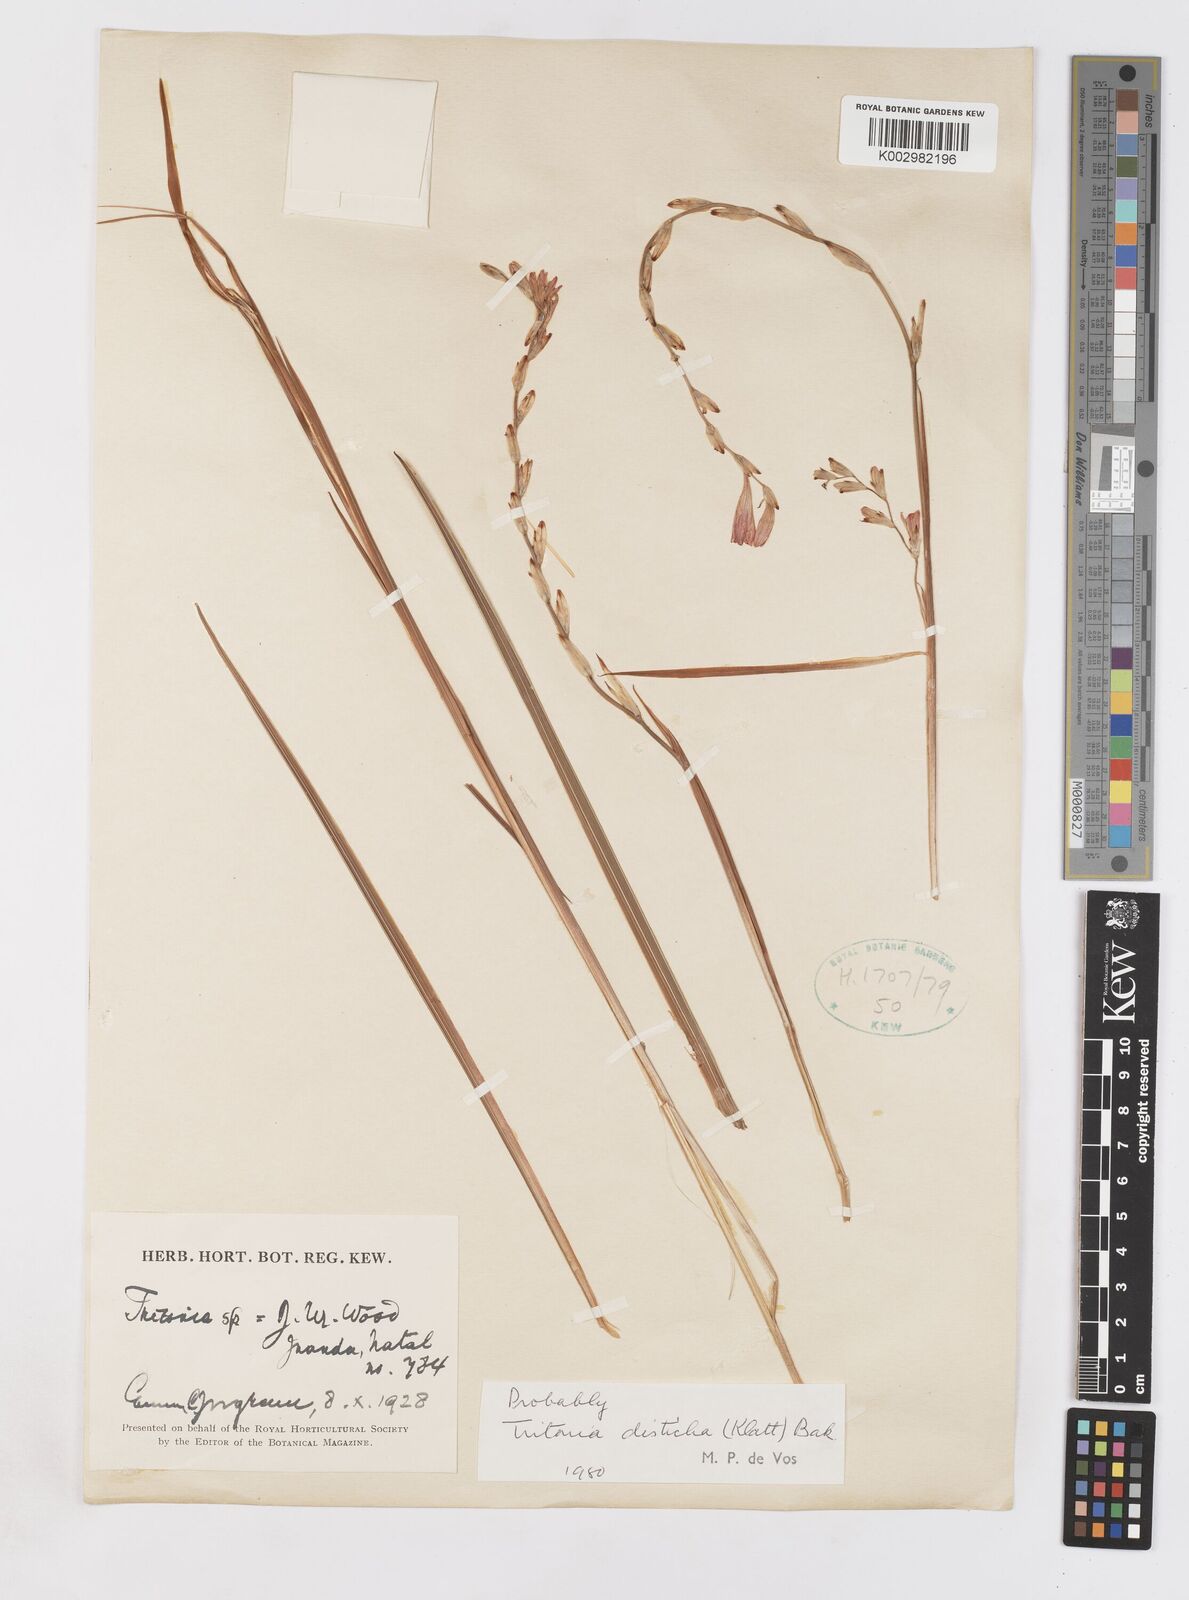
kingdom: Plantae
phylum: Tracheophyta
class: Liliopsida
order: Asparagales
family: Iridaceae
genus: Tritonia
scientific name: Tritonia disticha
